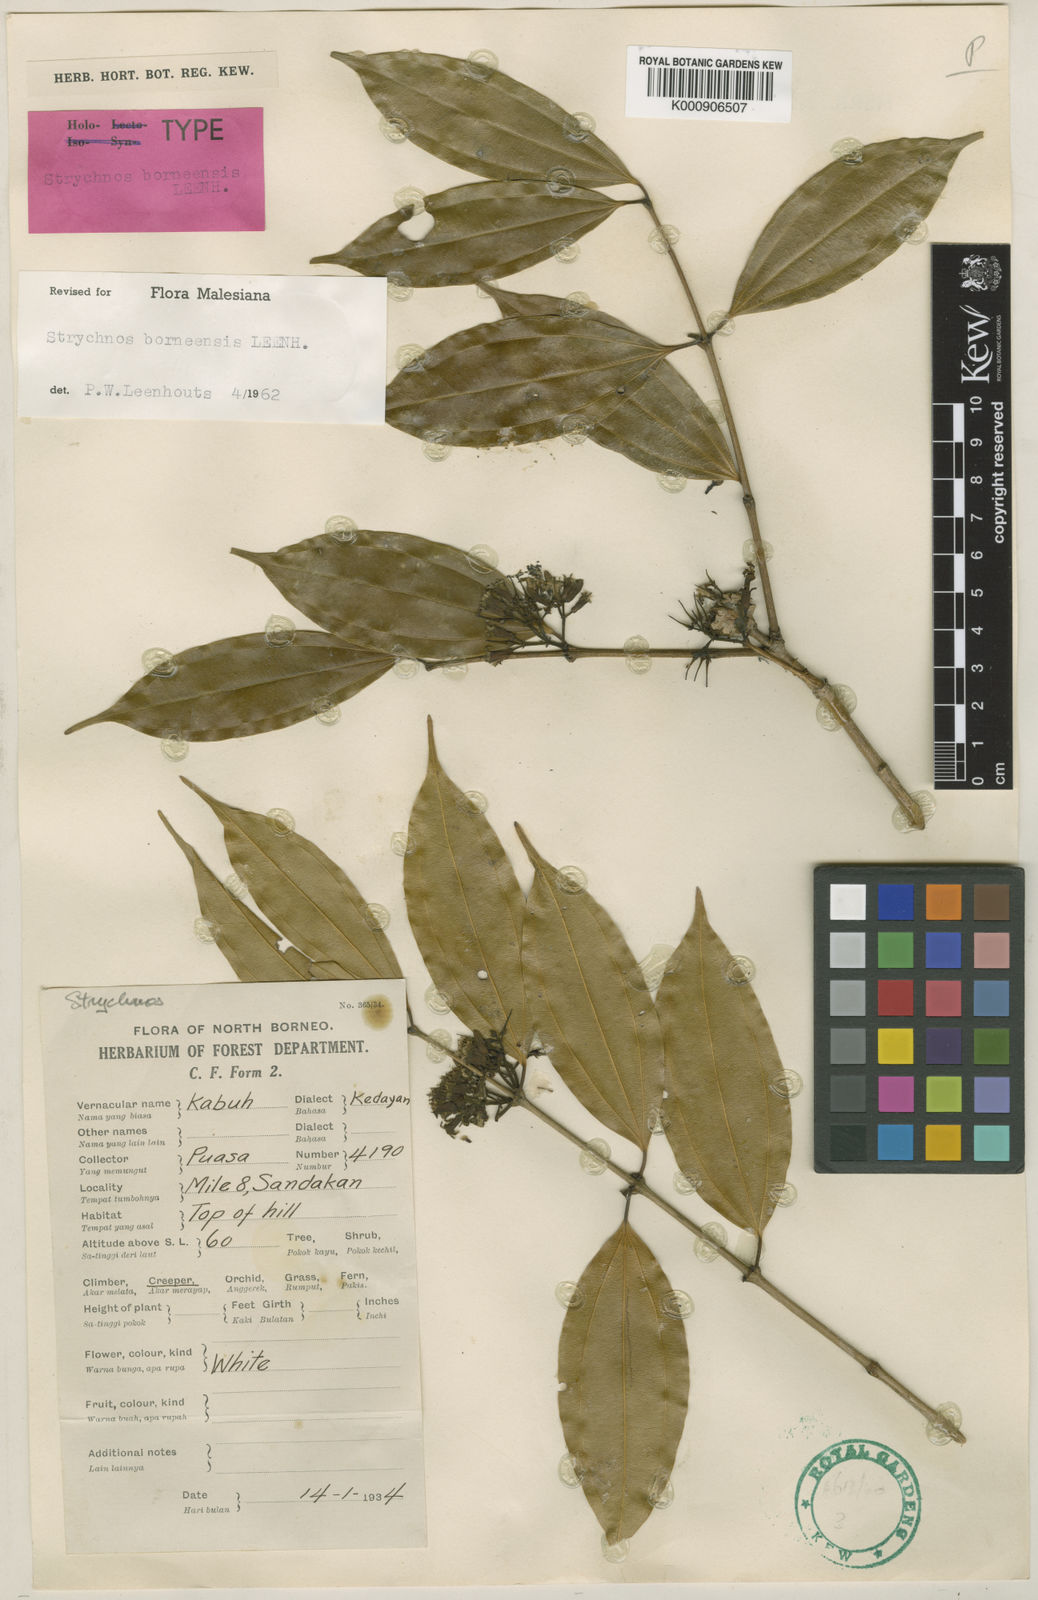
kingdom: Plantae
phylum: Tracheophyta
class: Magnoliopsida
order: Gentianales
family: Loganiaceae
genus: Strychnos
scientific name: Strychnos borneensis
